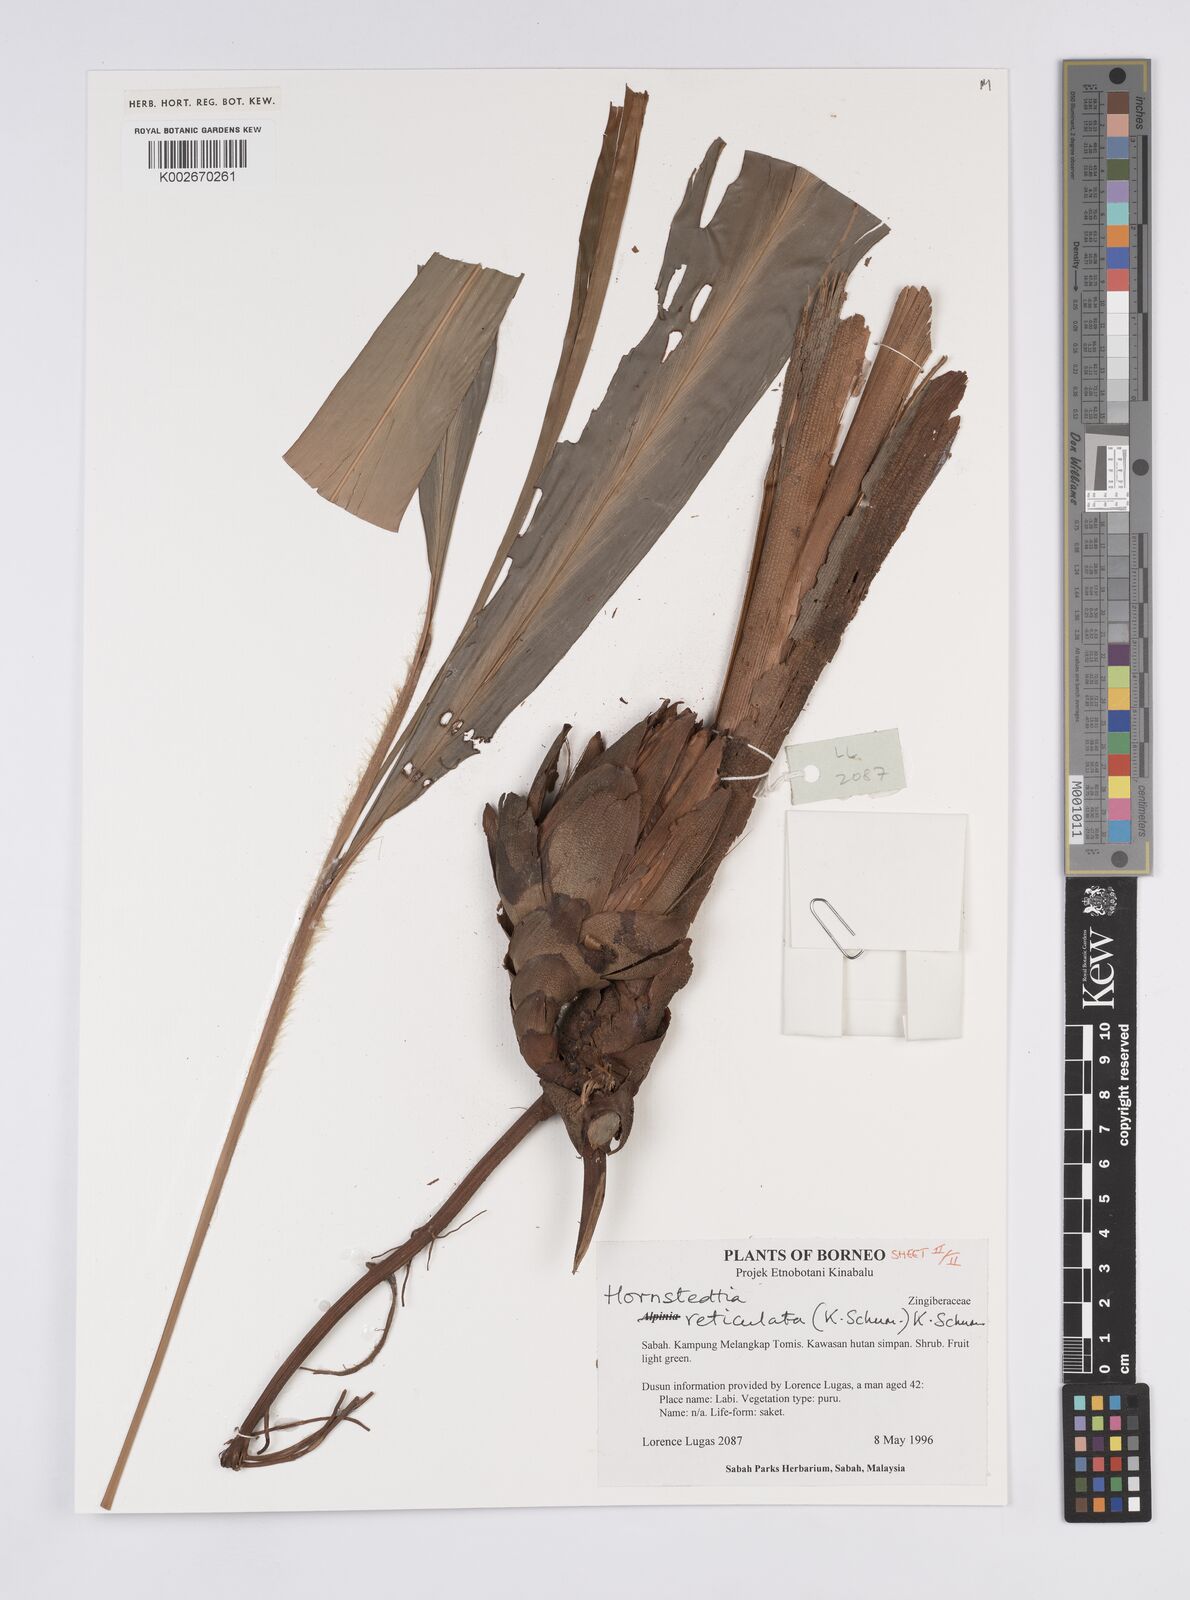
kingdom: Plantae
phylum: Tracheophyta
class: Liliopsida
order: Zingiberales
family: Zingiberaceae
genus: Hornstedtia
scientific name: Hornstedtia reticulata
